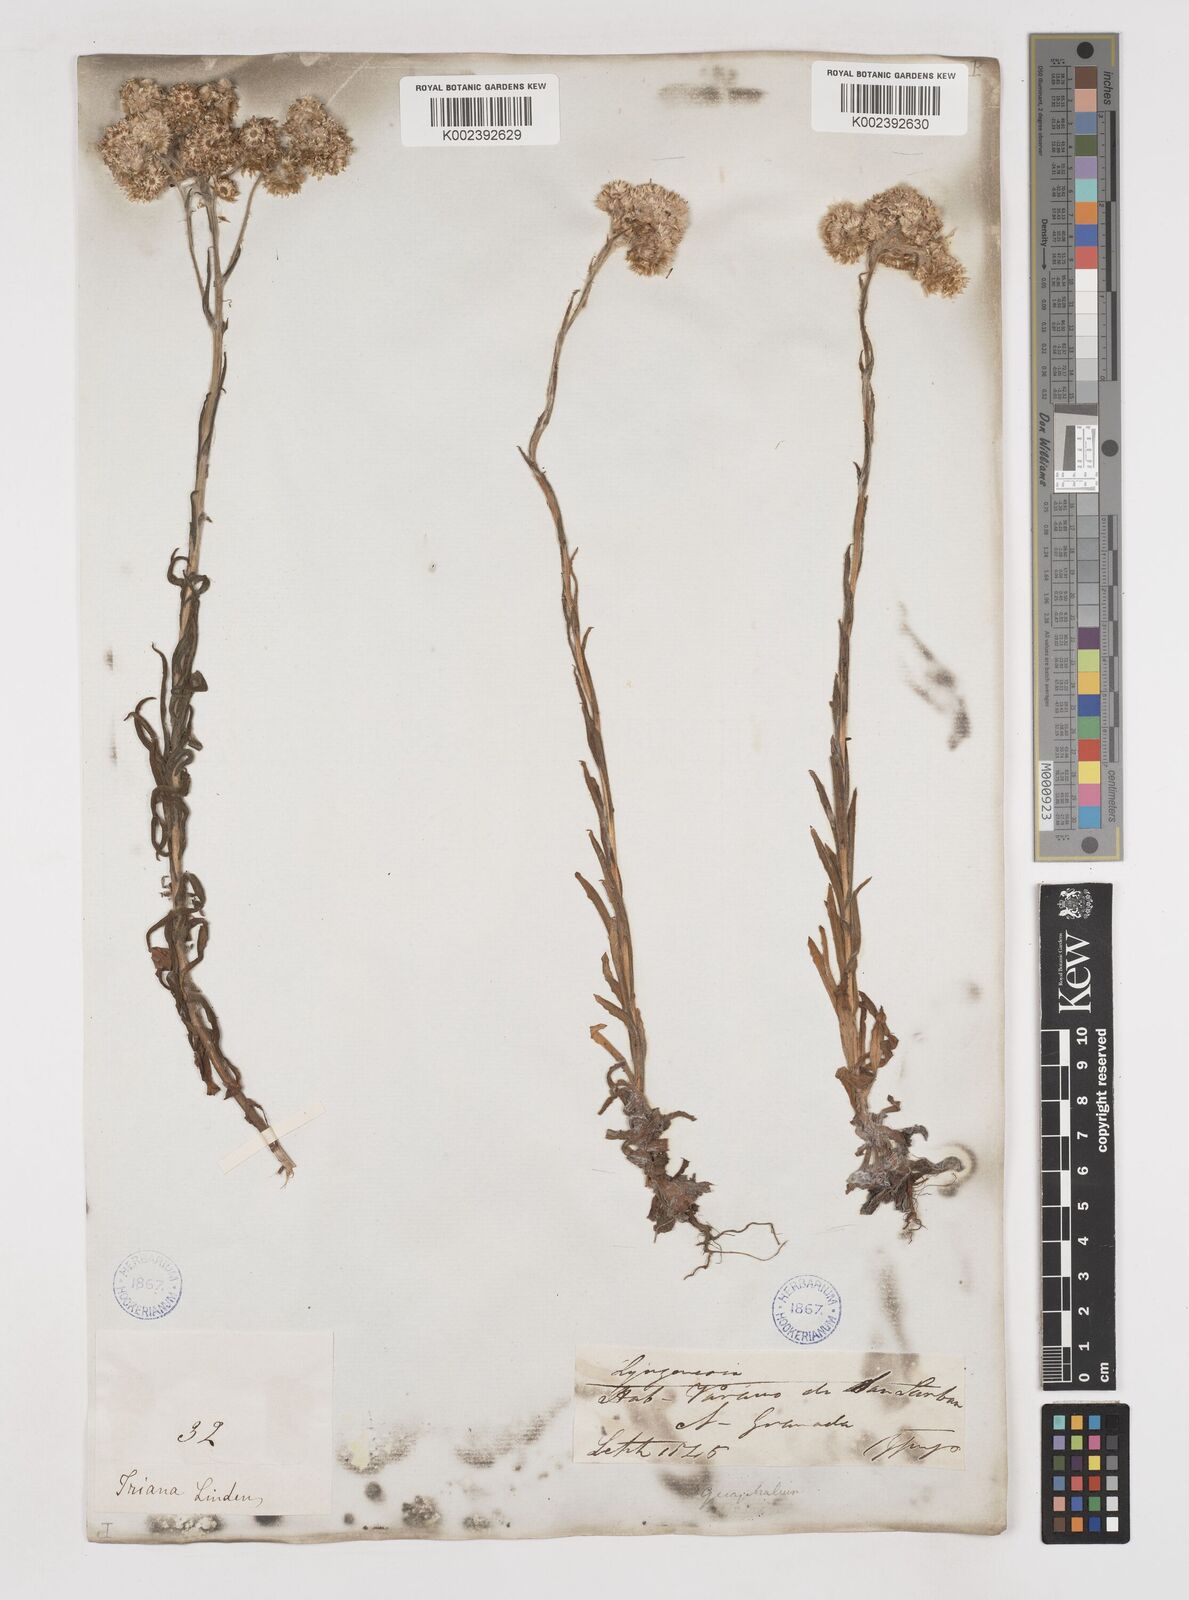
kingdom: Plantae
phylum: Tracheophyta
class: Magnoliopsida
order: Asterales
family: Asteraceae
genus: Gnaphalium
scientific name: Gnaphalium
